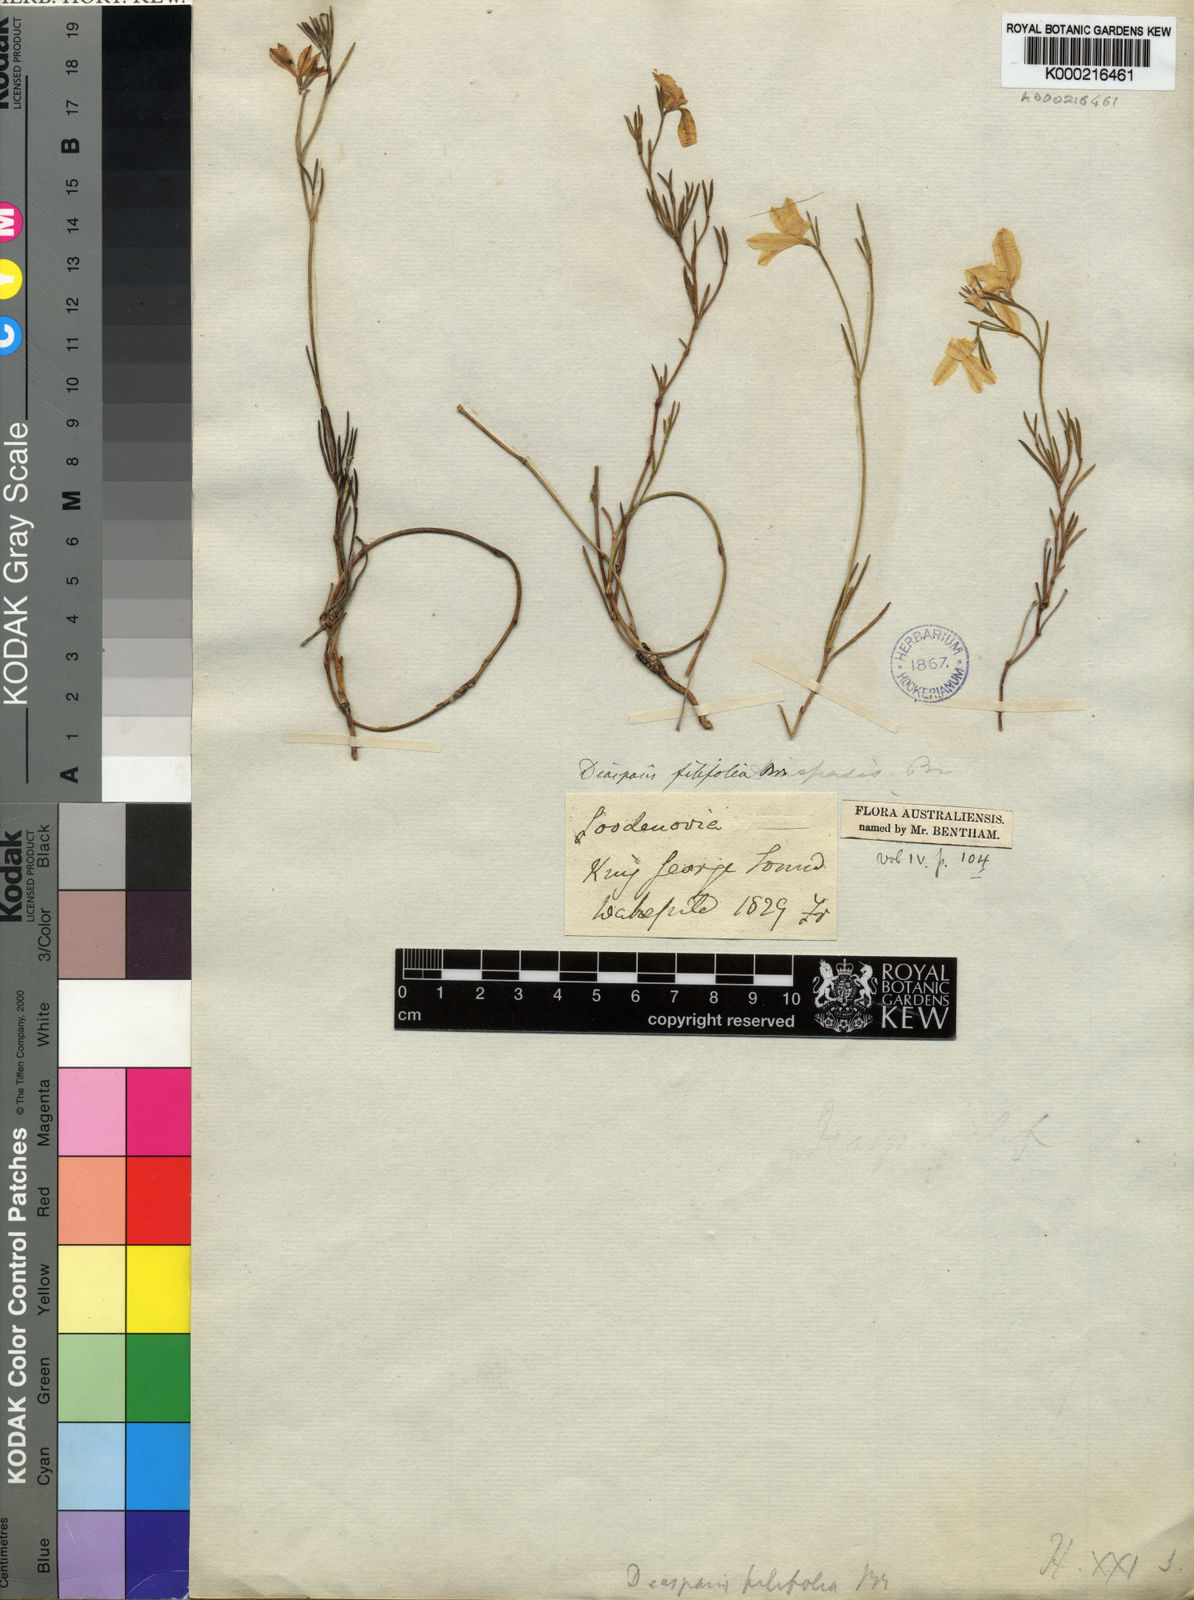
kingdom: Plantae
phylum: Tracheophyta
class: Magnoliopsida
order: Asterales
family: Goodeniaceae
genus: Scaevola
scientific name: Scaevola filifolia
